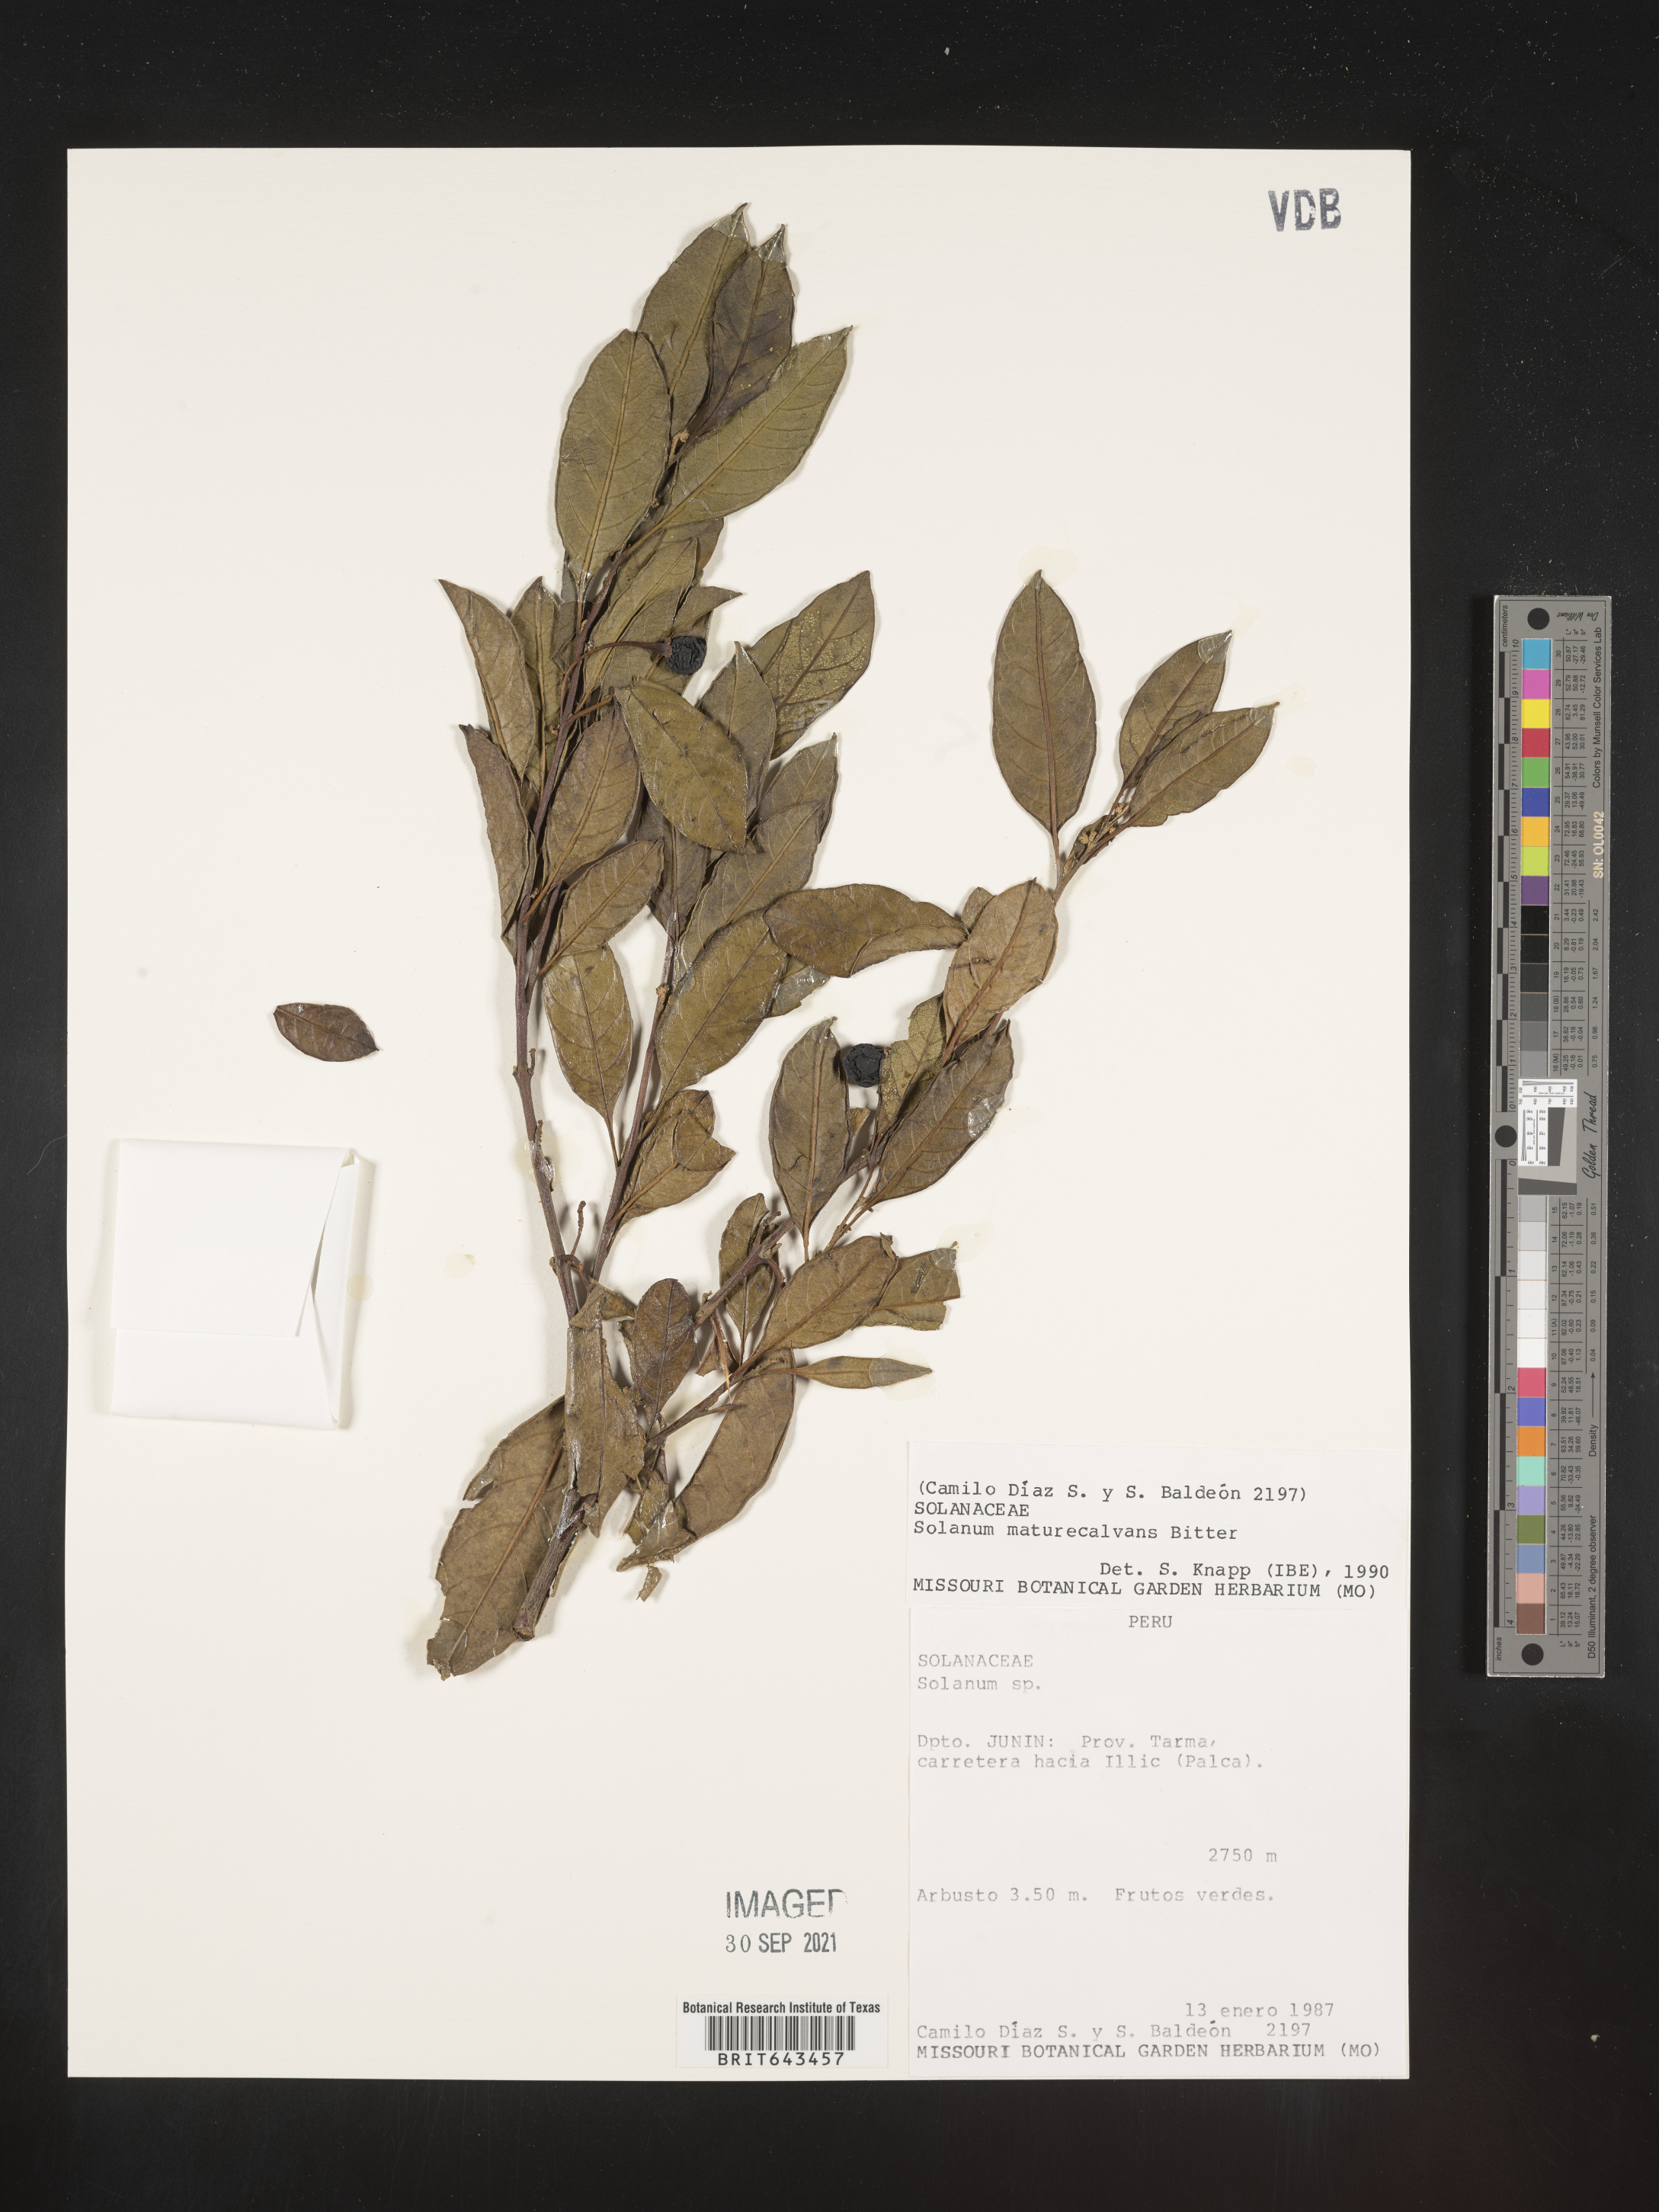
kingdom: Plantae
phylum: Tracheophyta
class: Magnoliopsida
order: Solanales
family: Solanaceae
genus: Solanum
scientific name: Solanum
